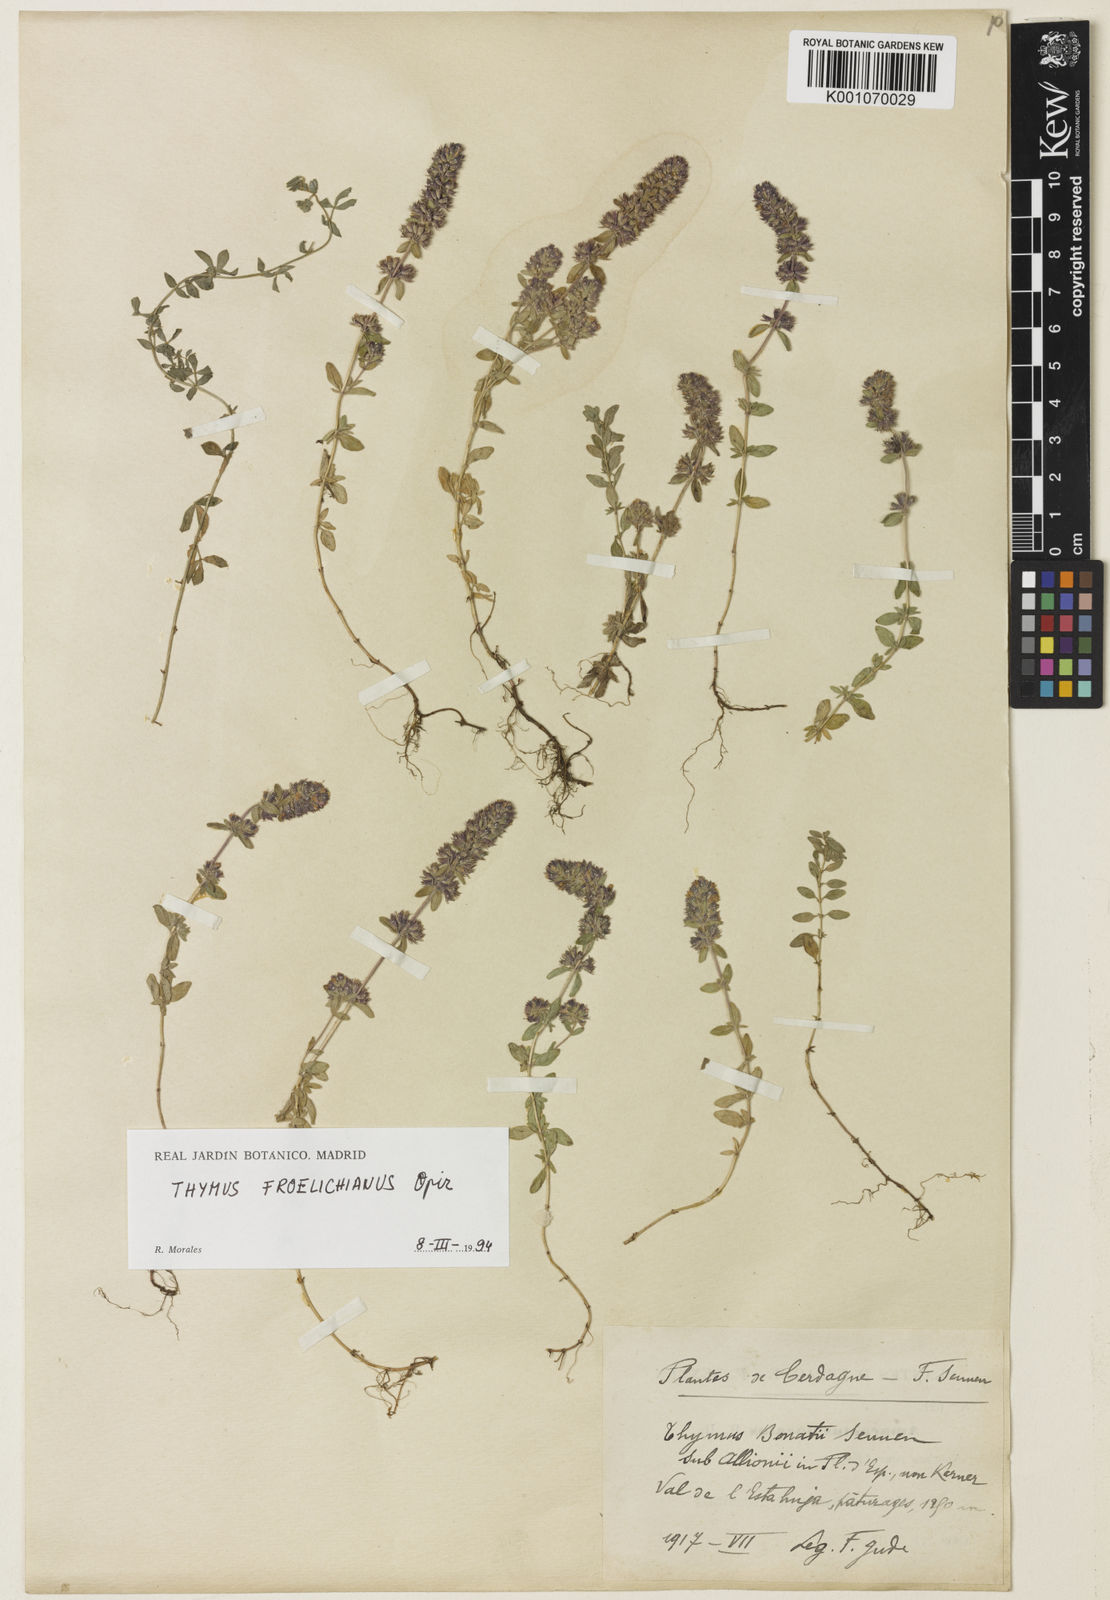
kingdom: Plantae
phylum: Tracheophyta
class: Magnoliopsida
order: Lamiales
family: Lamiaceae
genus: Thymus
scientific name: Thymus pulegioides
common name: Large thyme
